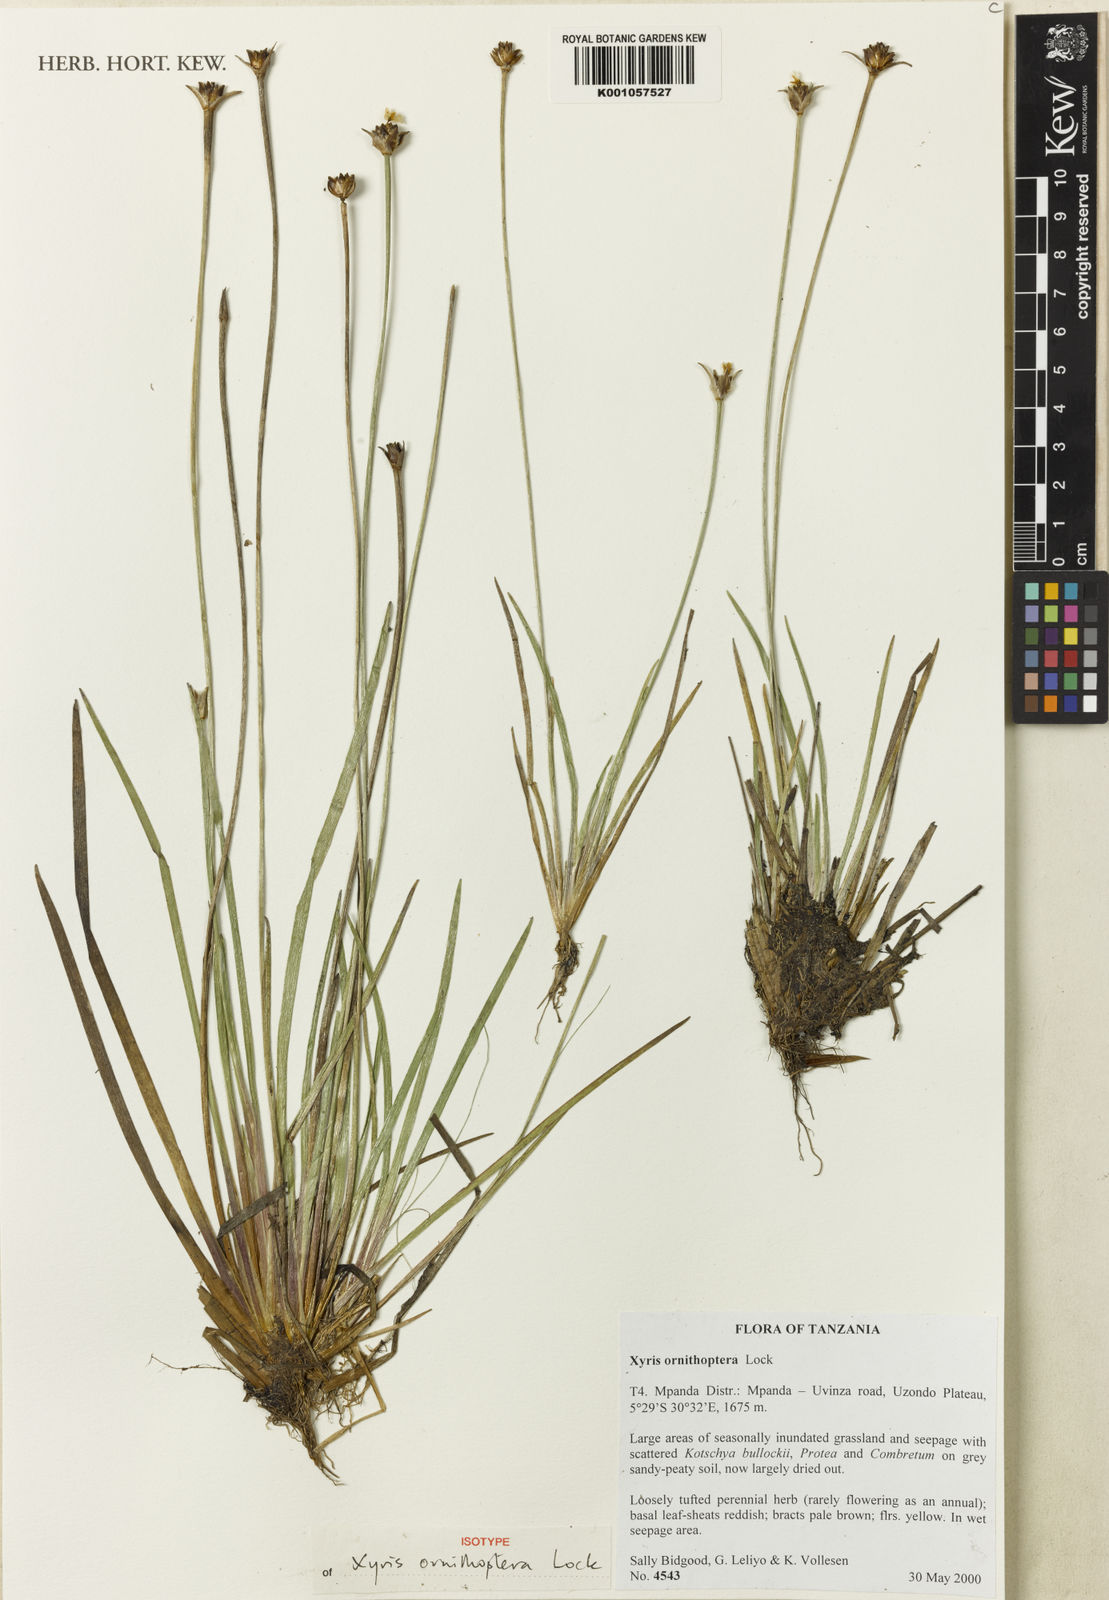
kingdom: Plantae
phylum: Tracheophyta
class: Liliopsida
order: Poales
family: Xyridaceae
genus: Xyris
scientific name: Xyris ornithoptera
